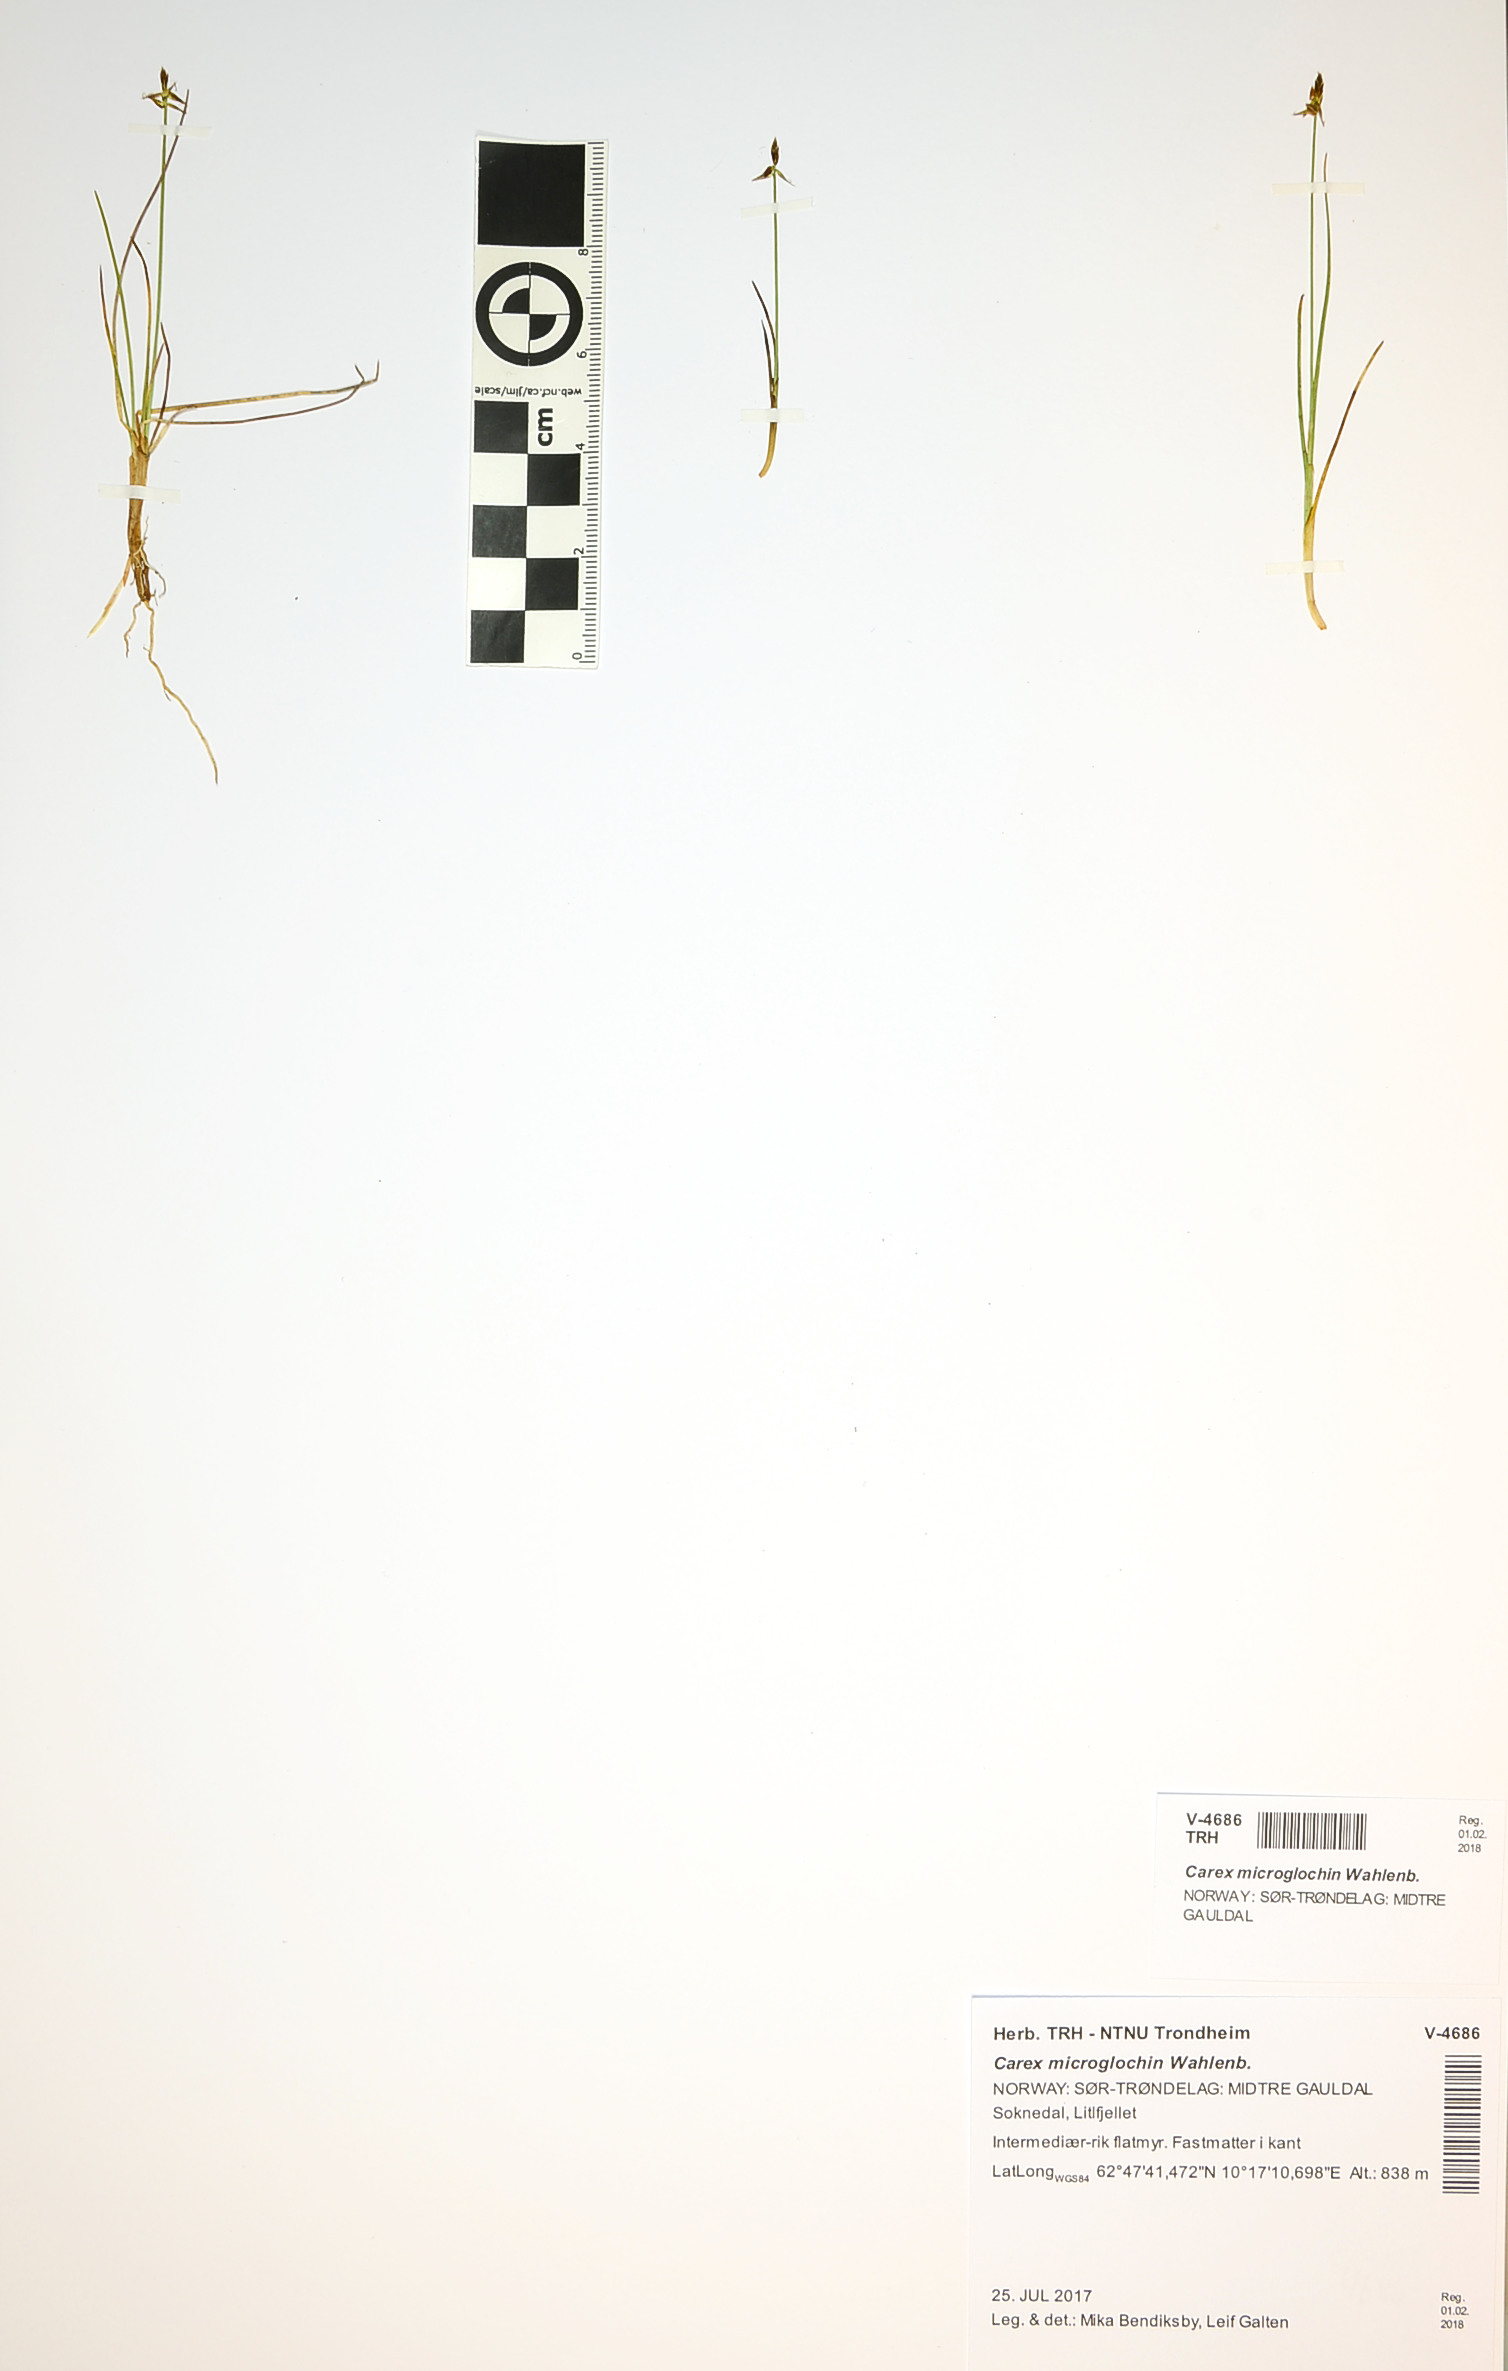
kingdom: Plantae
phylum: Tracheophyta
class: Liliopsida
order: Poales
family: Cyperaceae
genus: Carex
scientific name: Carex microglochin
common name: Bristle sedge
